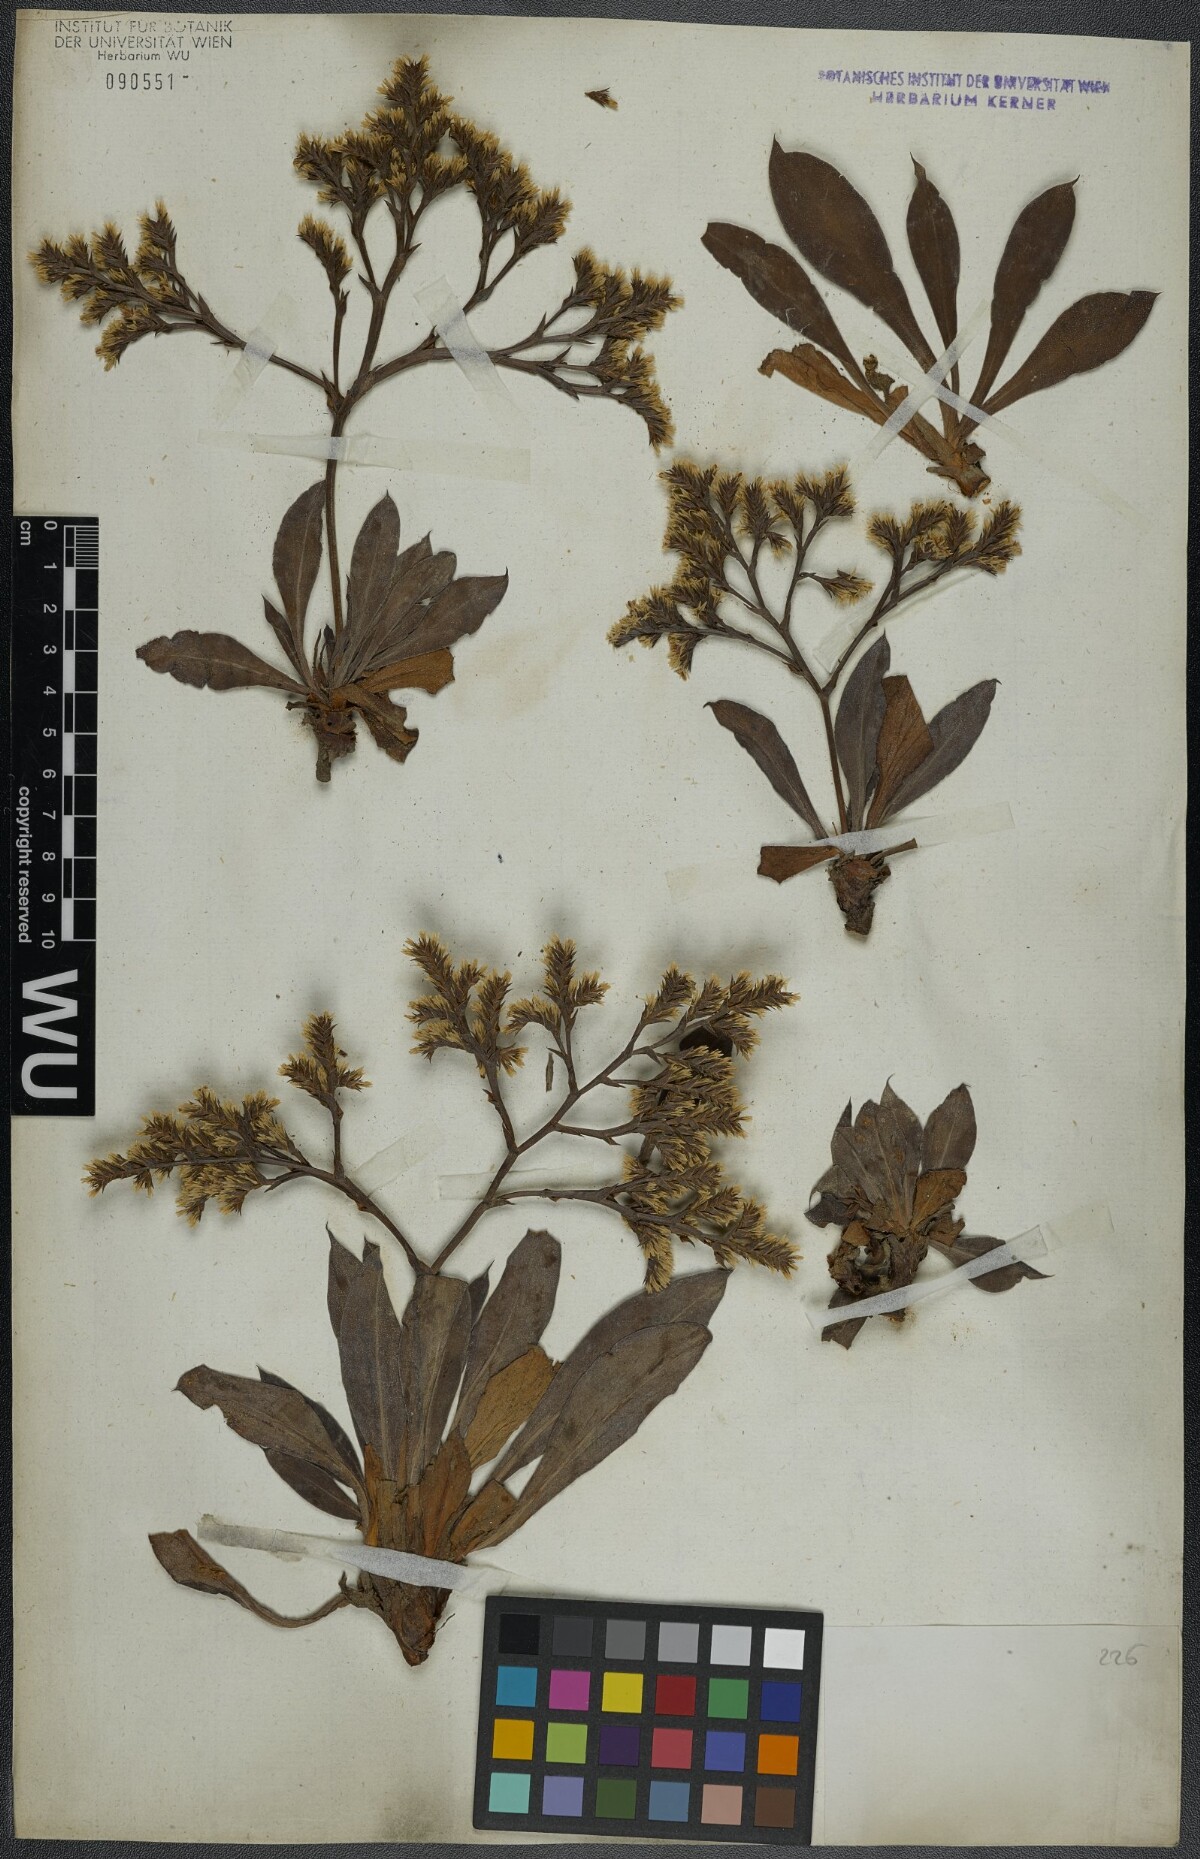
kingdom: Plantae
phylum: Tracheophyta
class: Magnoliopsida
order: Caryophyllales
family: Plumbaginaceae
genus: Goniolimon
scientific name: Goniolimon tataricum
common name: Statice
